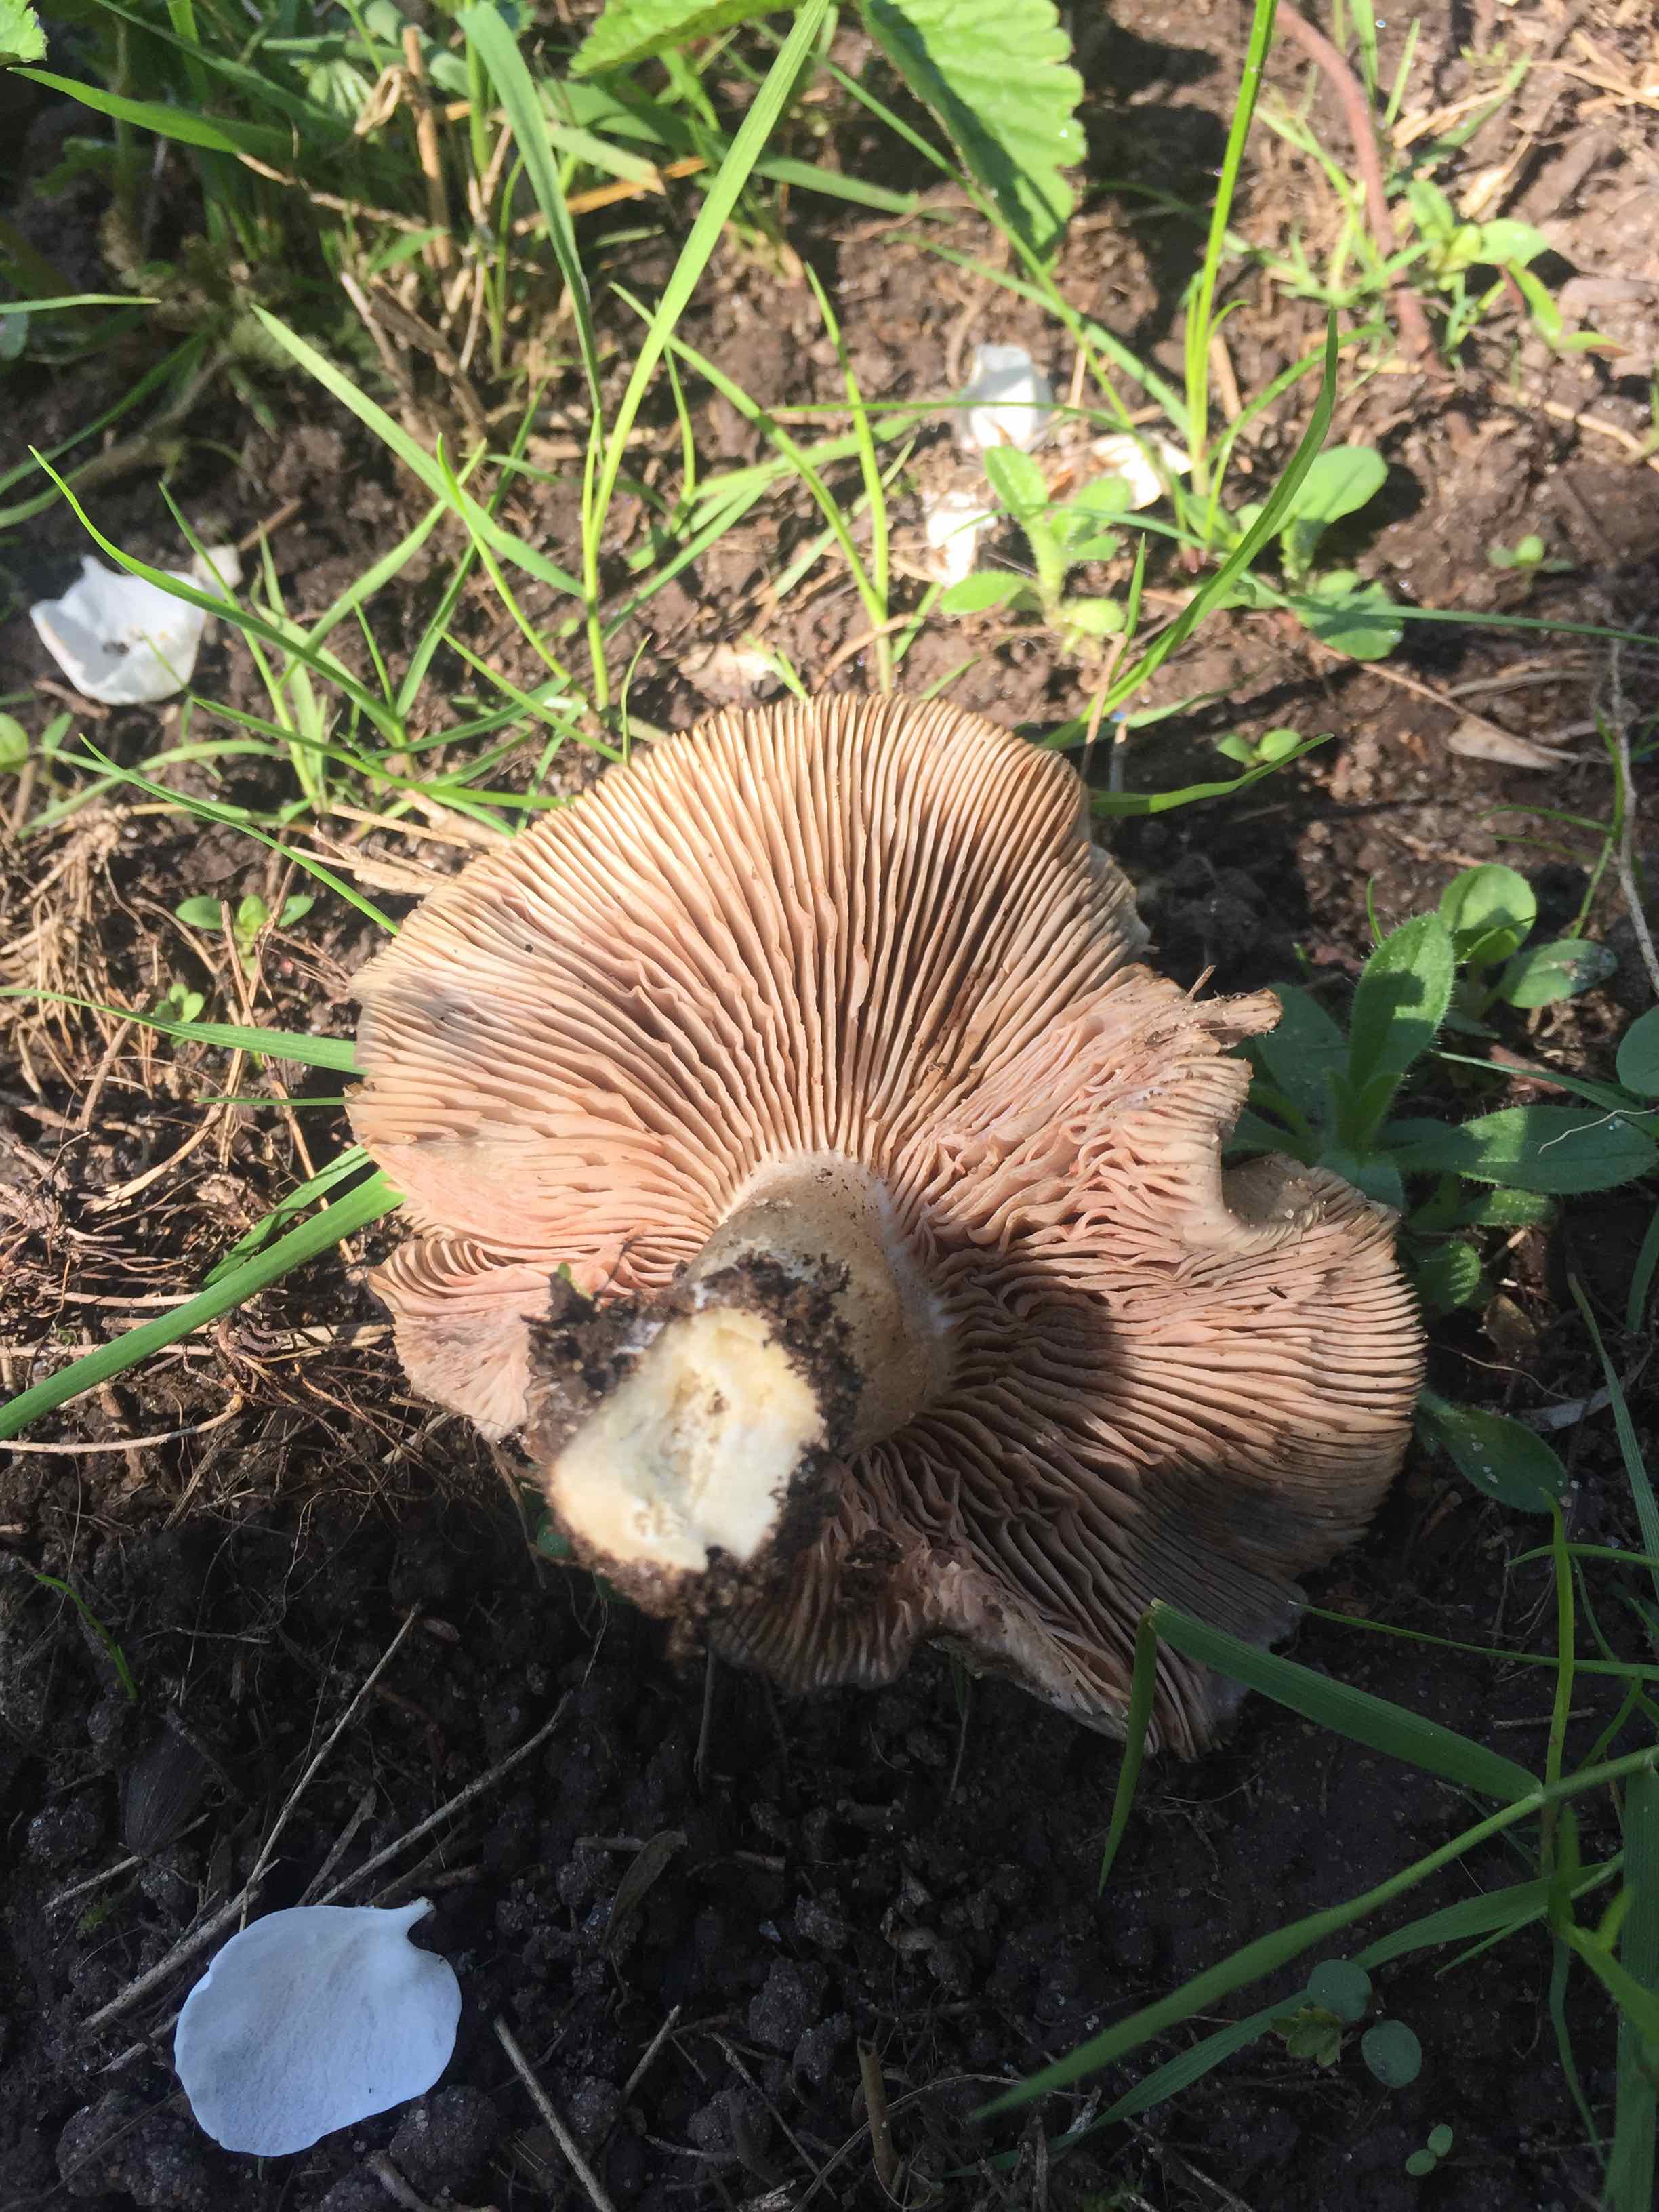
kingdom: Fungi
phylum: Basidiomycota
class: Agaricomycetes
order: Agaricales
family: Entolomataceae
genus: Entoloma
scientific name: Entoloma clypeatum
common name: flammet rødblad
